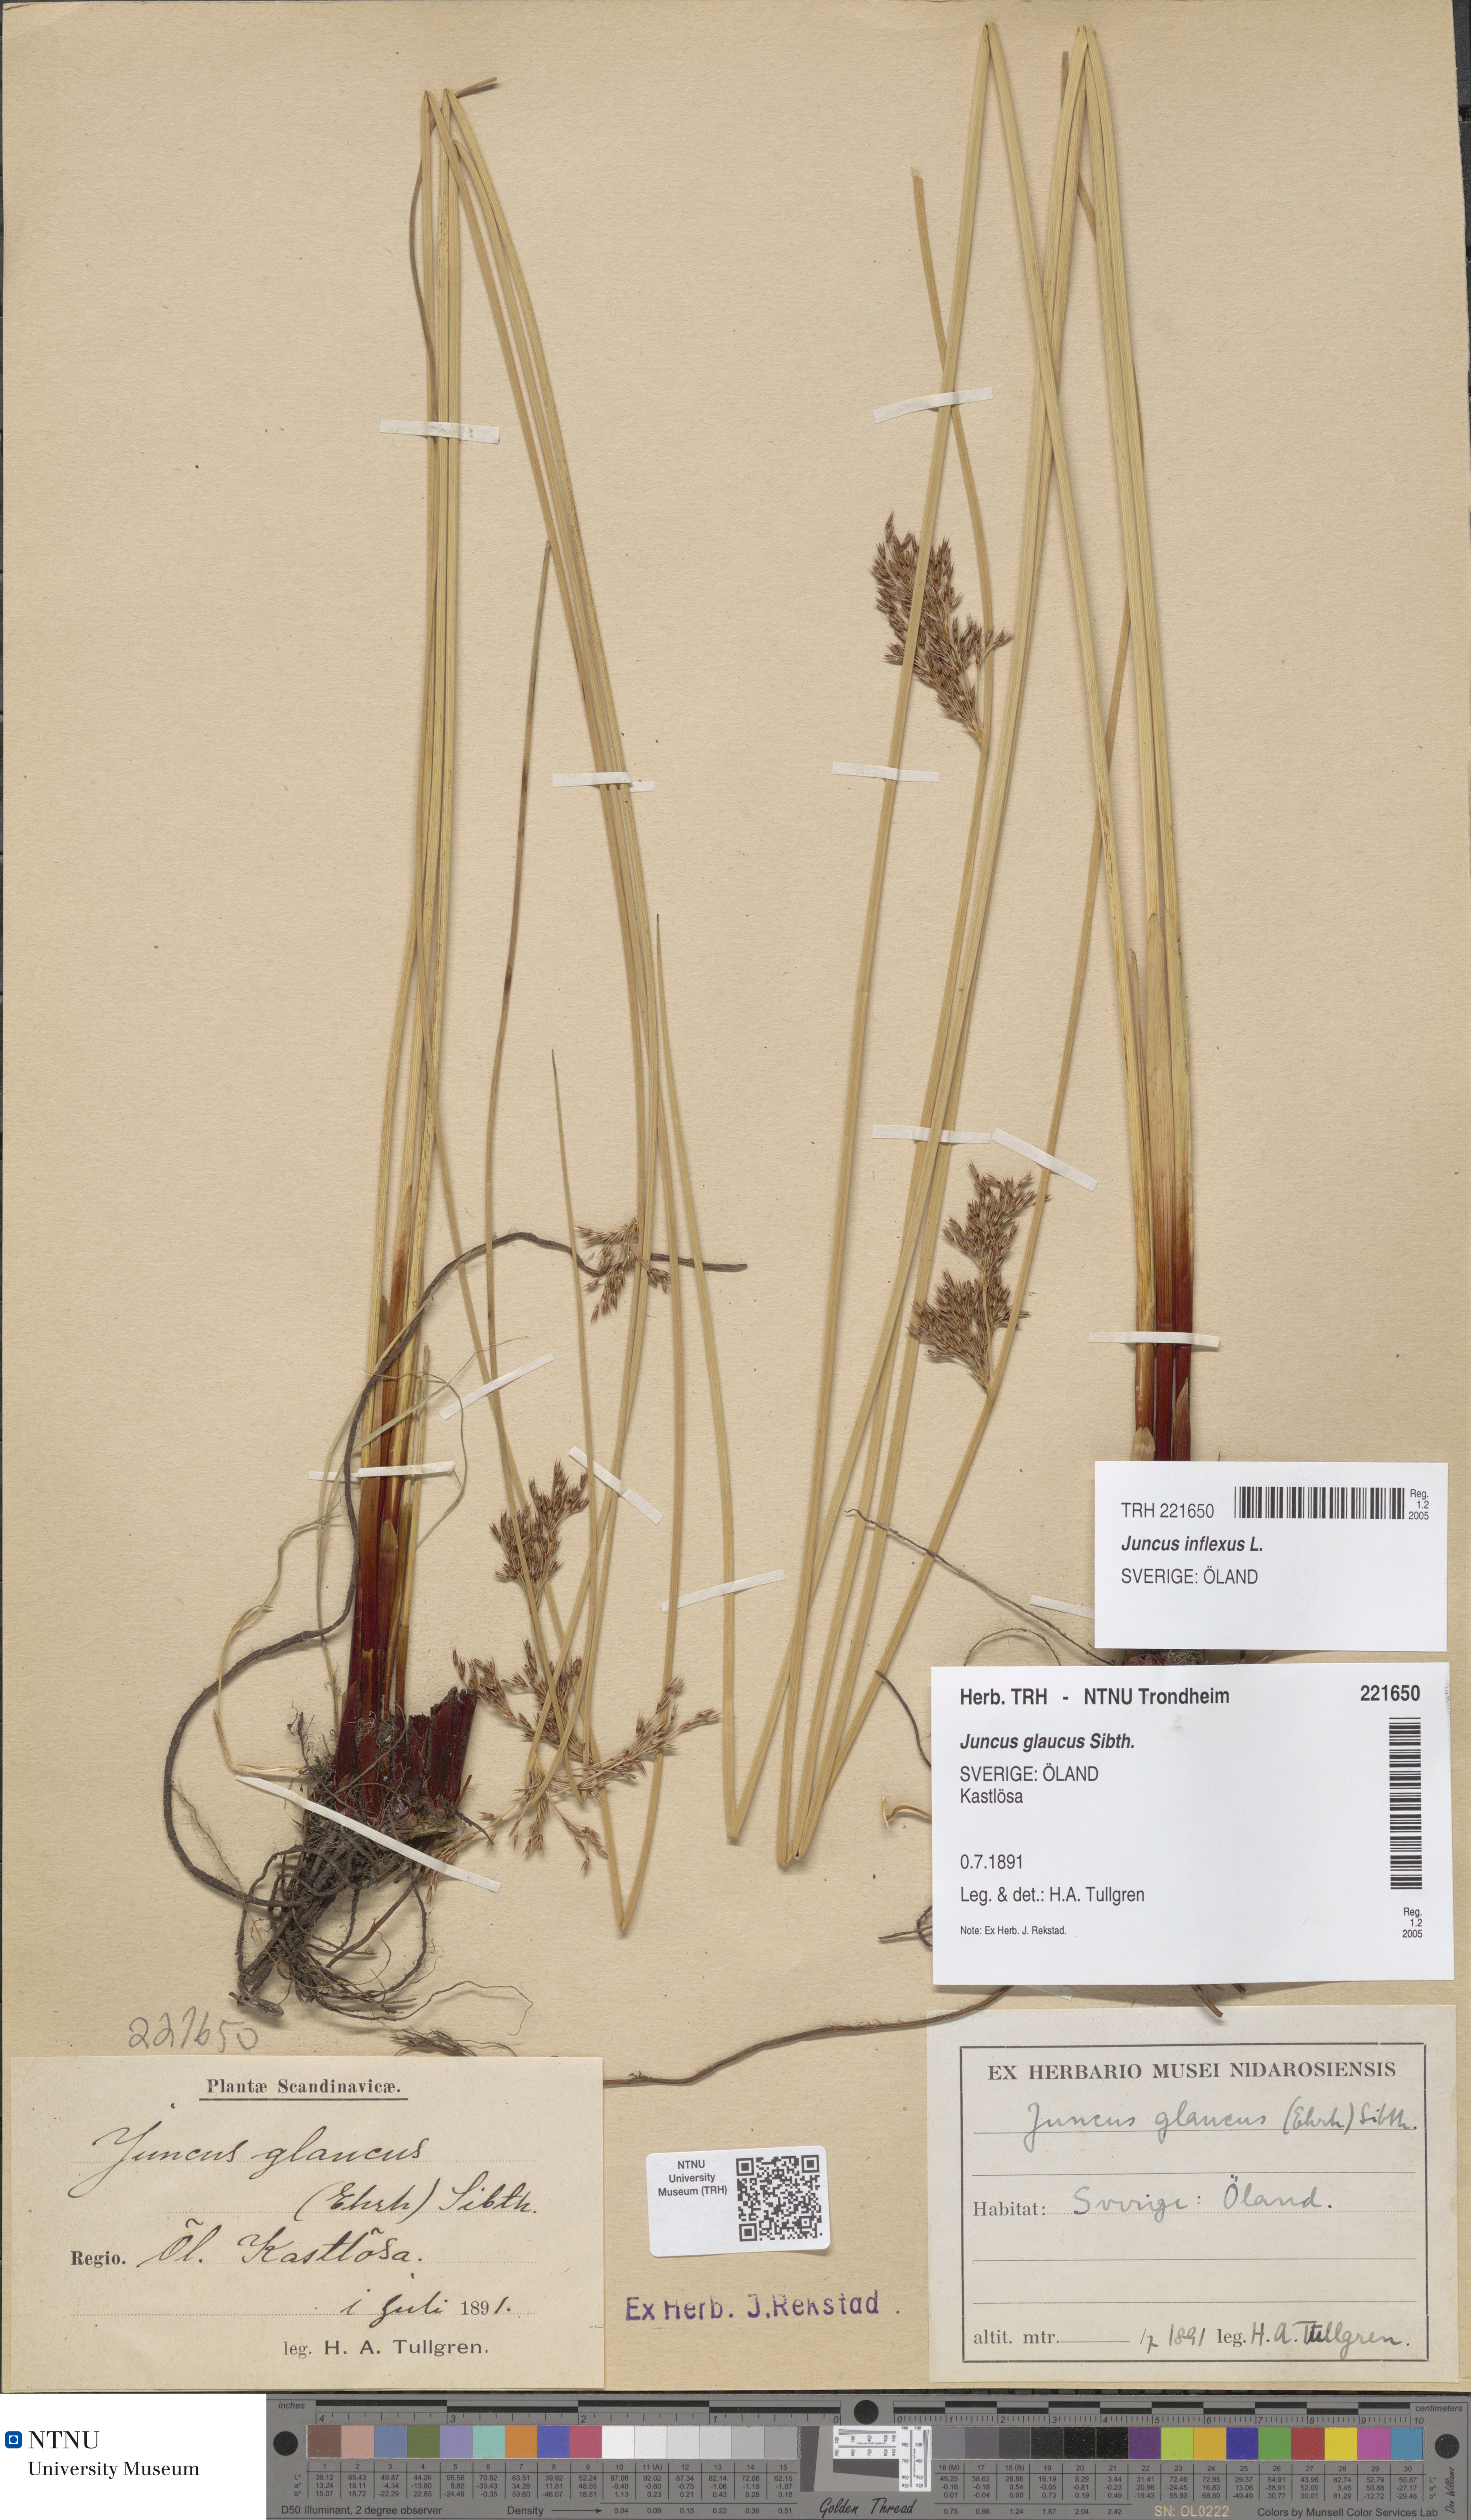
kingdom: Plantae
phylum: Tracheophyta
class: Liliopsida
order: Poales
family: Juncaceae
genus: Juncus
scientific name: Juncus inflexus
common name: Hard rush
